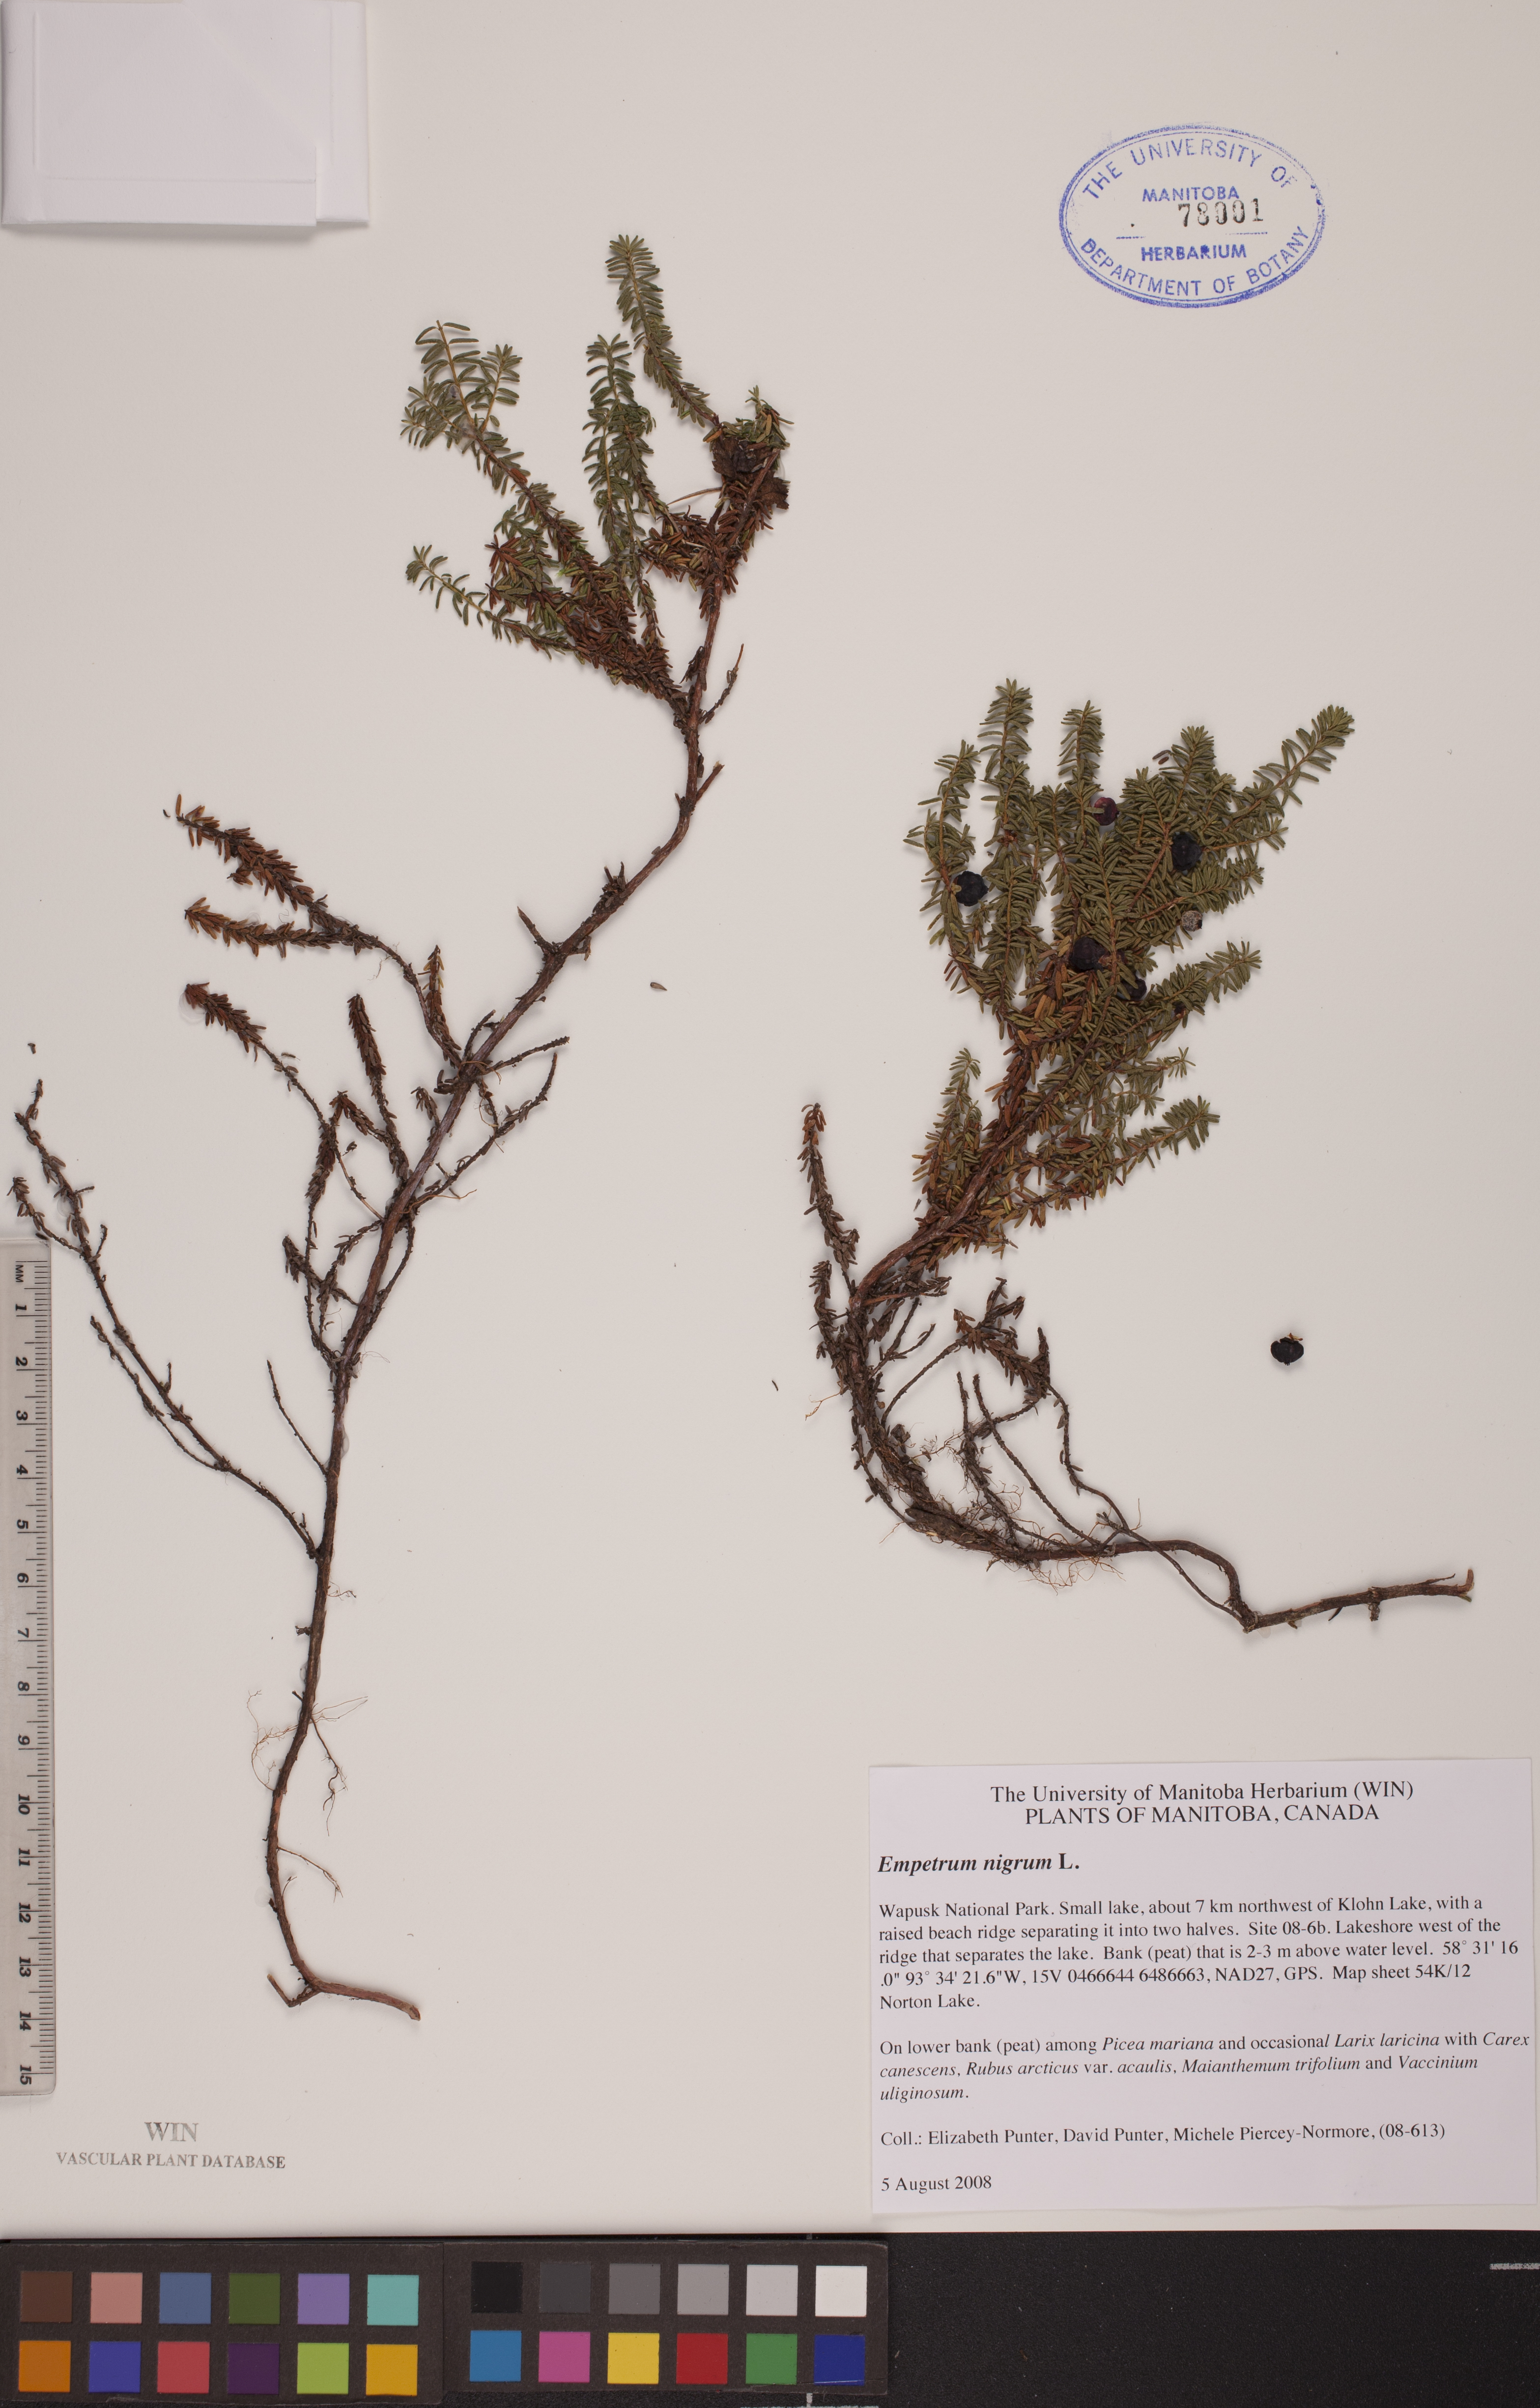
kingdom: Plantae
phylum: Tracheophyta
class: Magnoliopsida
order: Ericales
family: Ericaceae
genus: Empetrum
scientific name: Empetrum nigrum
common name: Black crowberry
